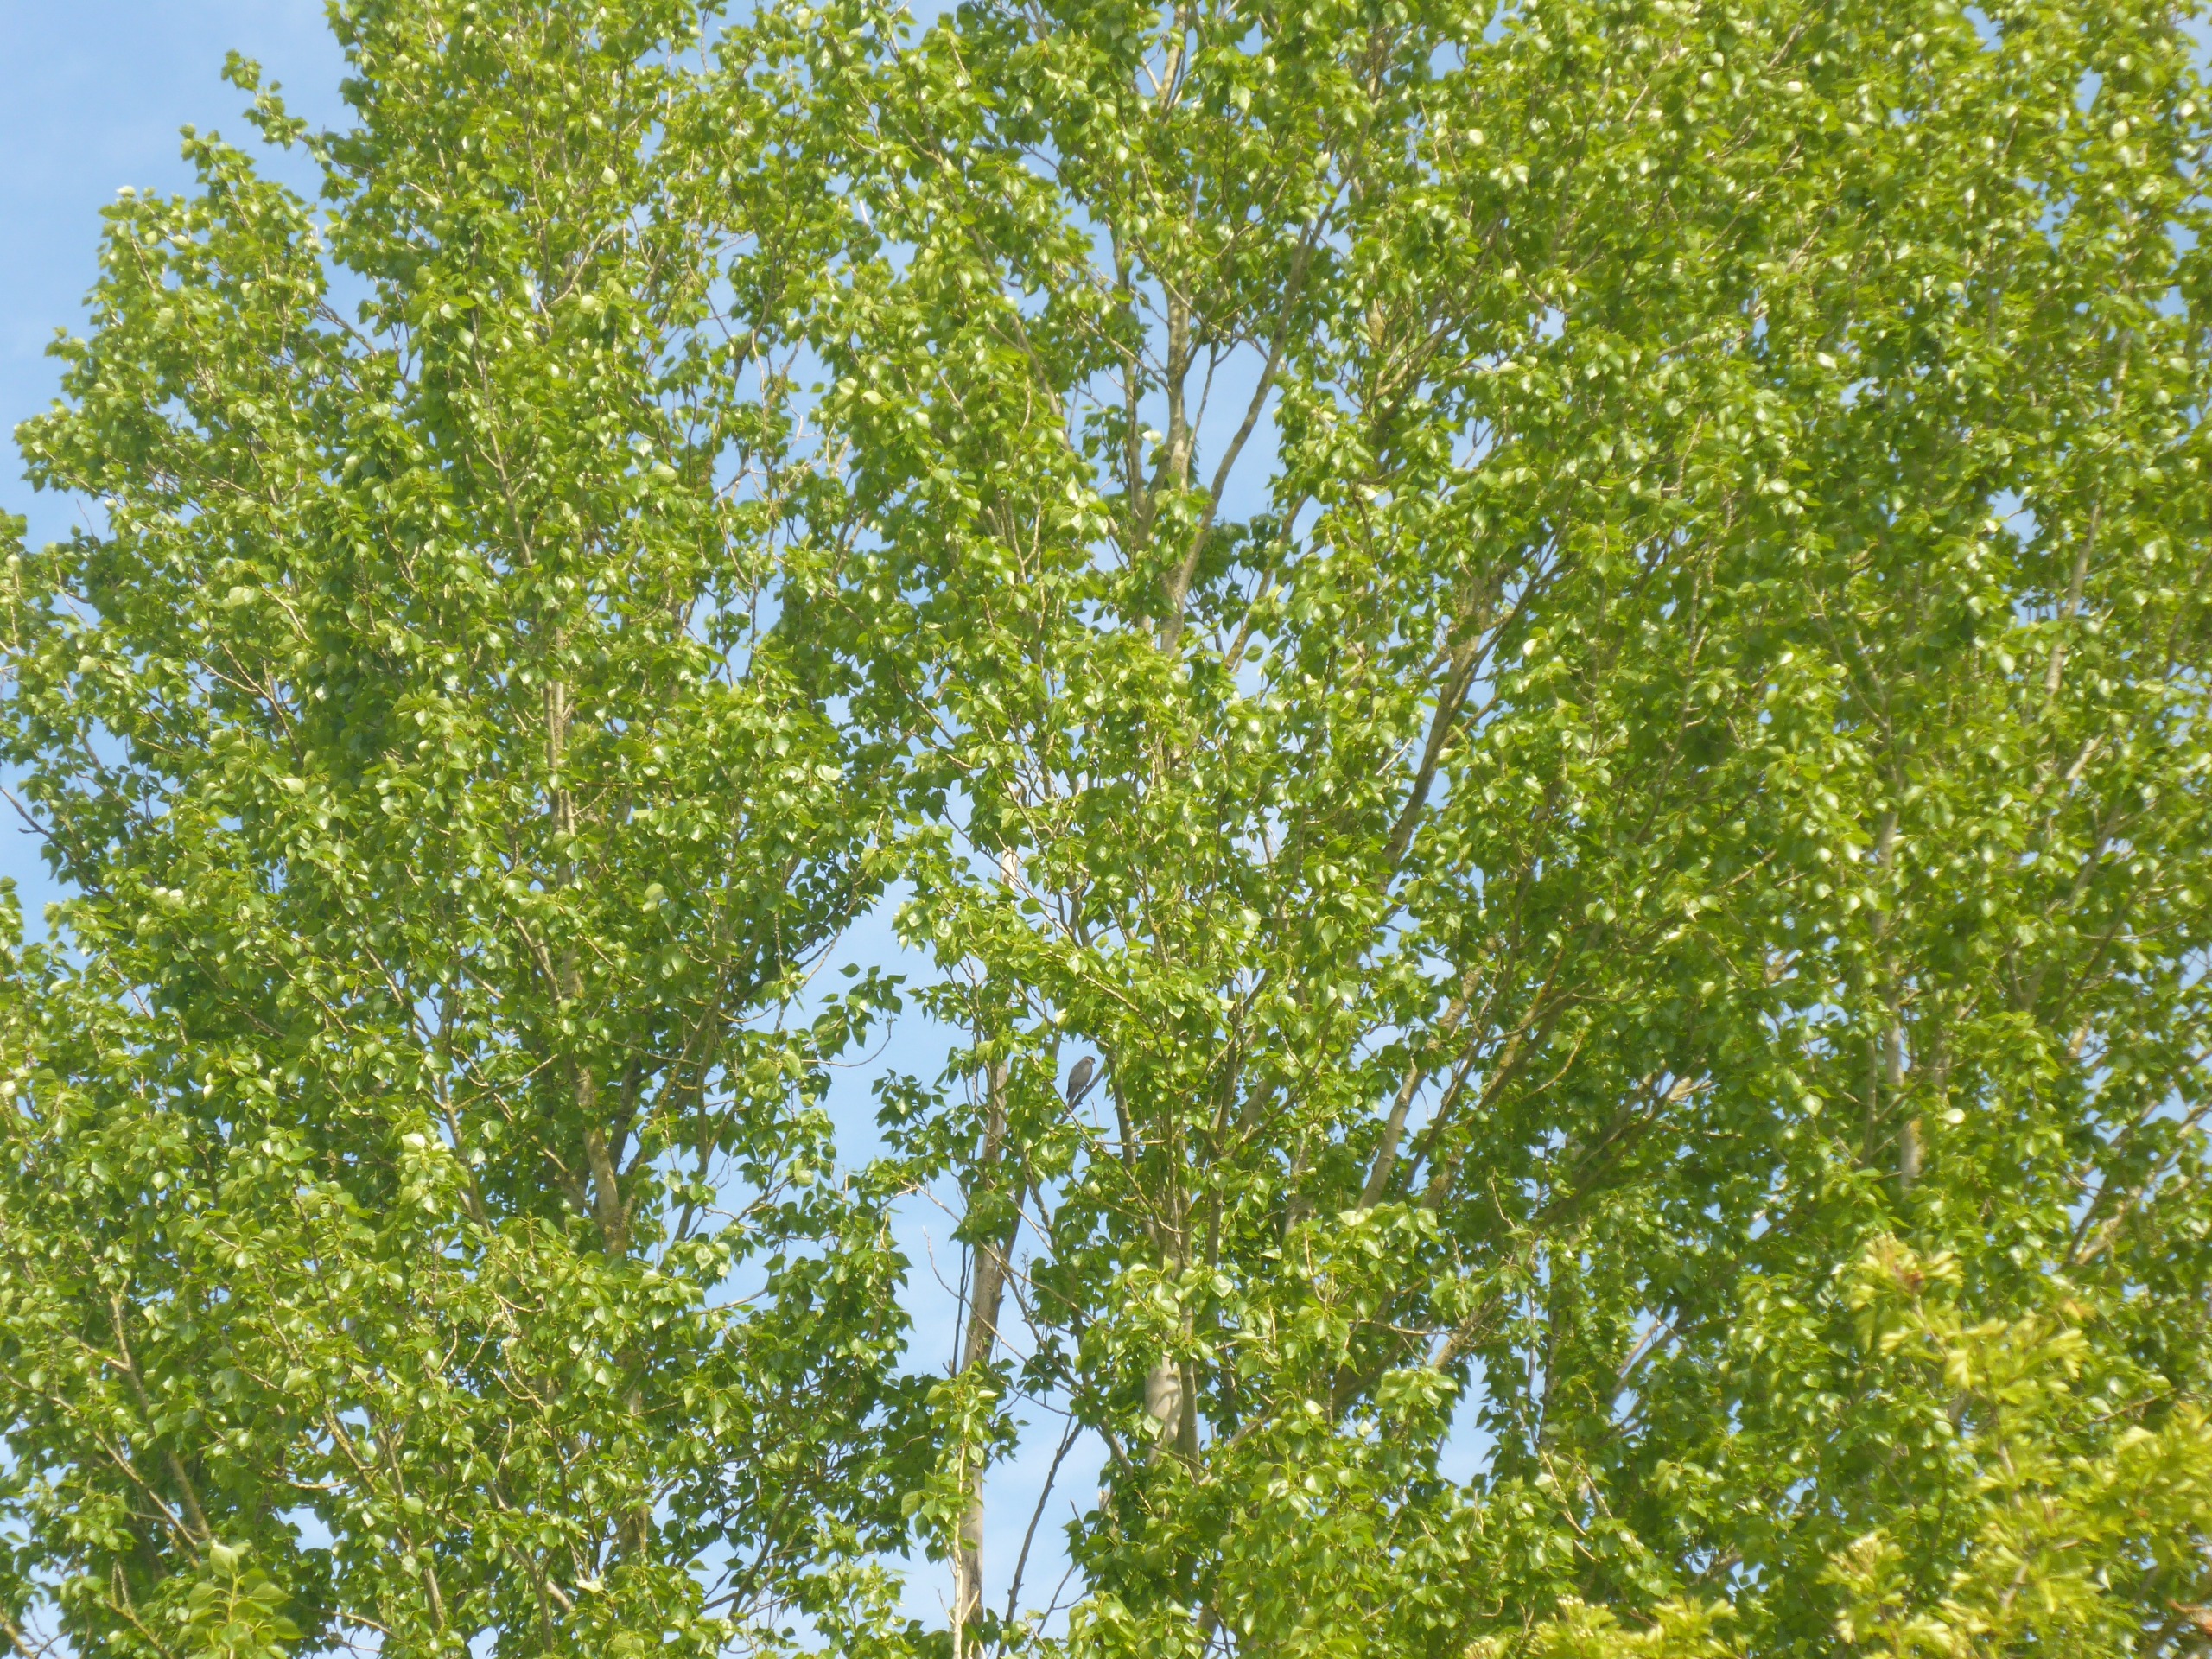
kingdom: Animalia
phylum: Chordata
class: Aves
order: Accipitriformes
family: Accipitridae
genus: Accipiter
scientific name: Accipiter nisus
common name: Spurvehøg
